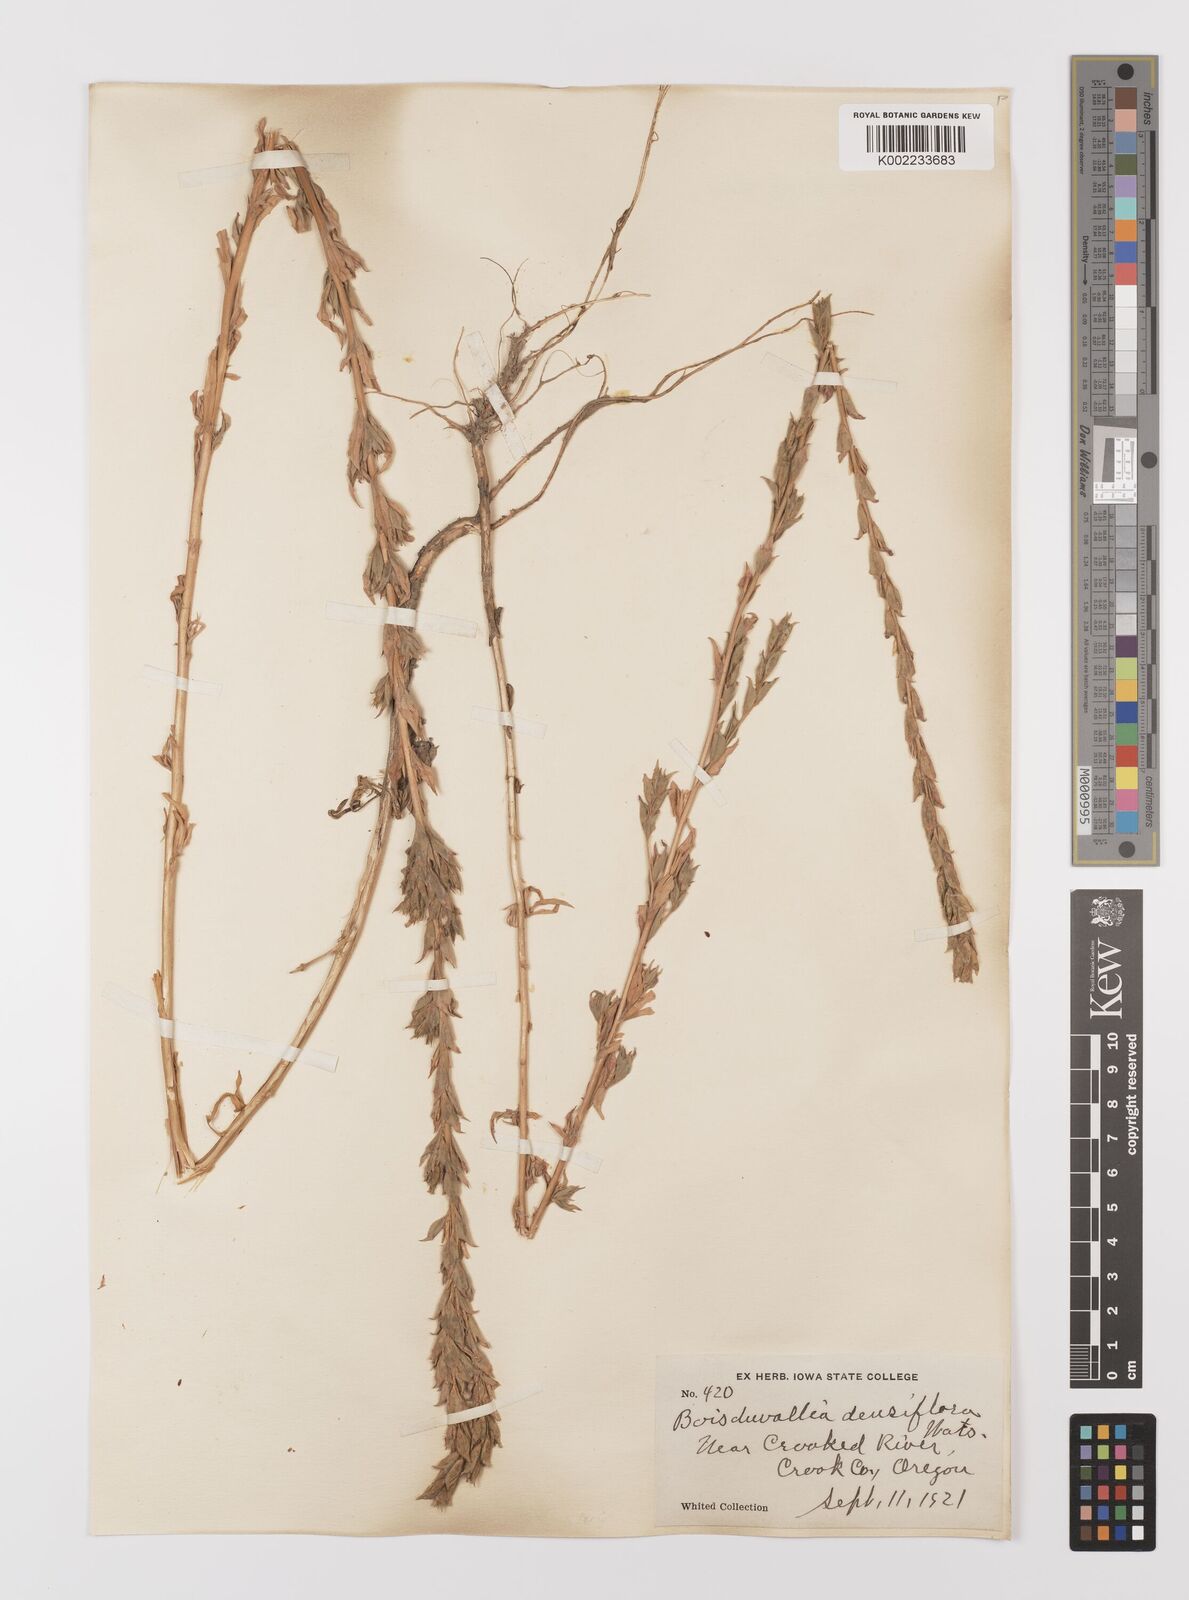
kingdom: Plantae
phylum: Tracheophyta
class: Magnoliopsida
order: Myrtales
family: Onagraceae
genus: Epilobium
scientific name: Epilobium densiflorum
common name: Dense spike-primrose
